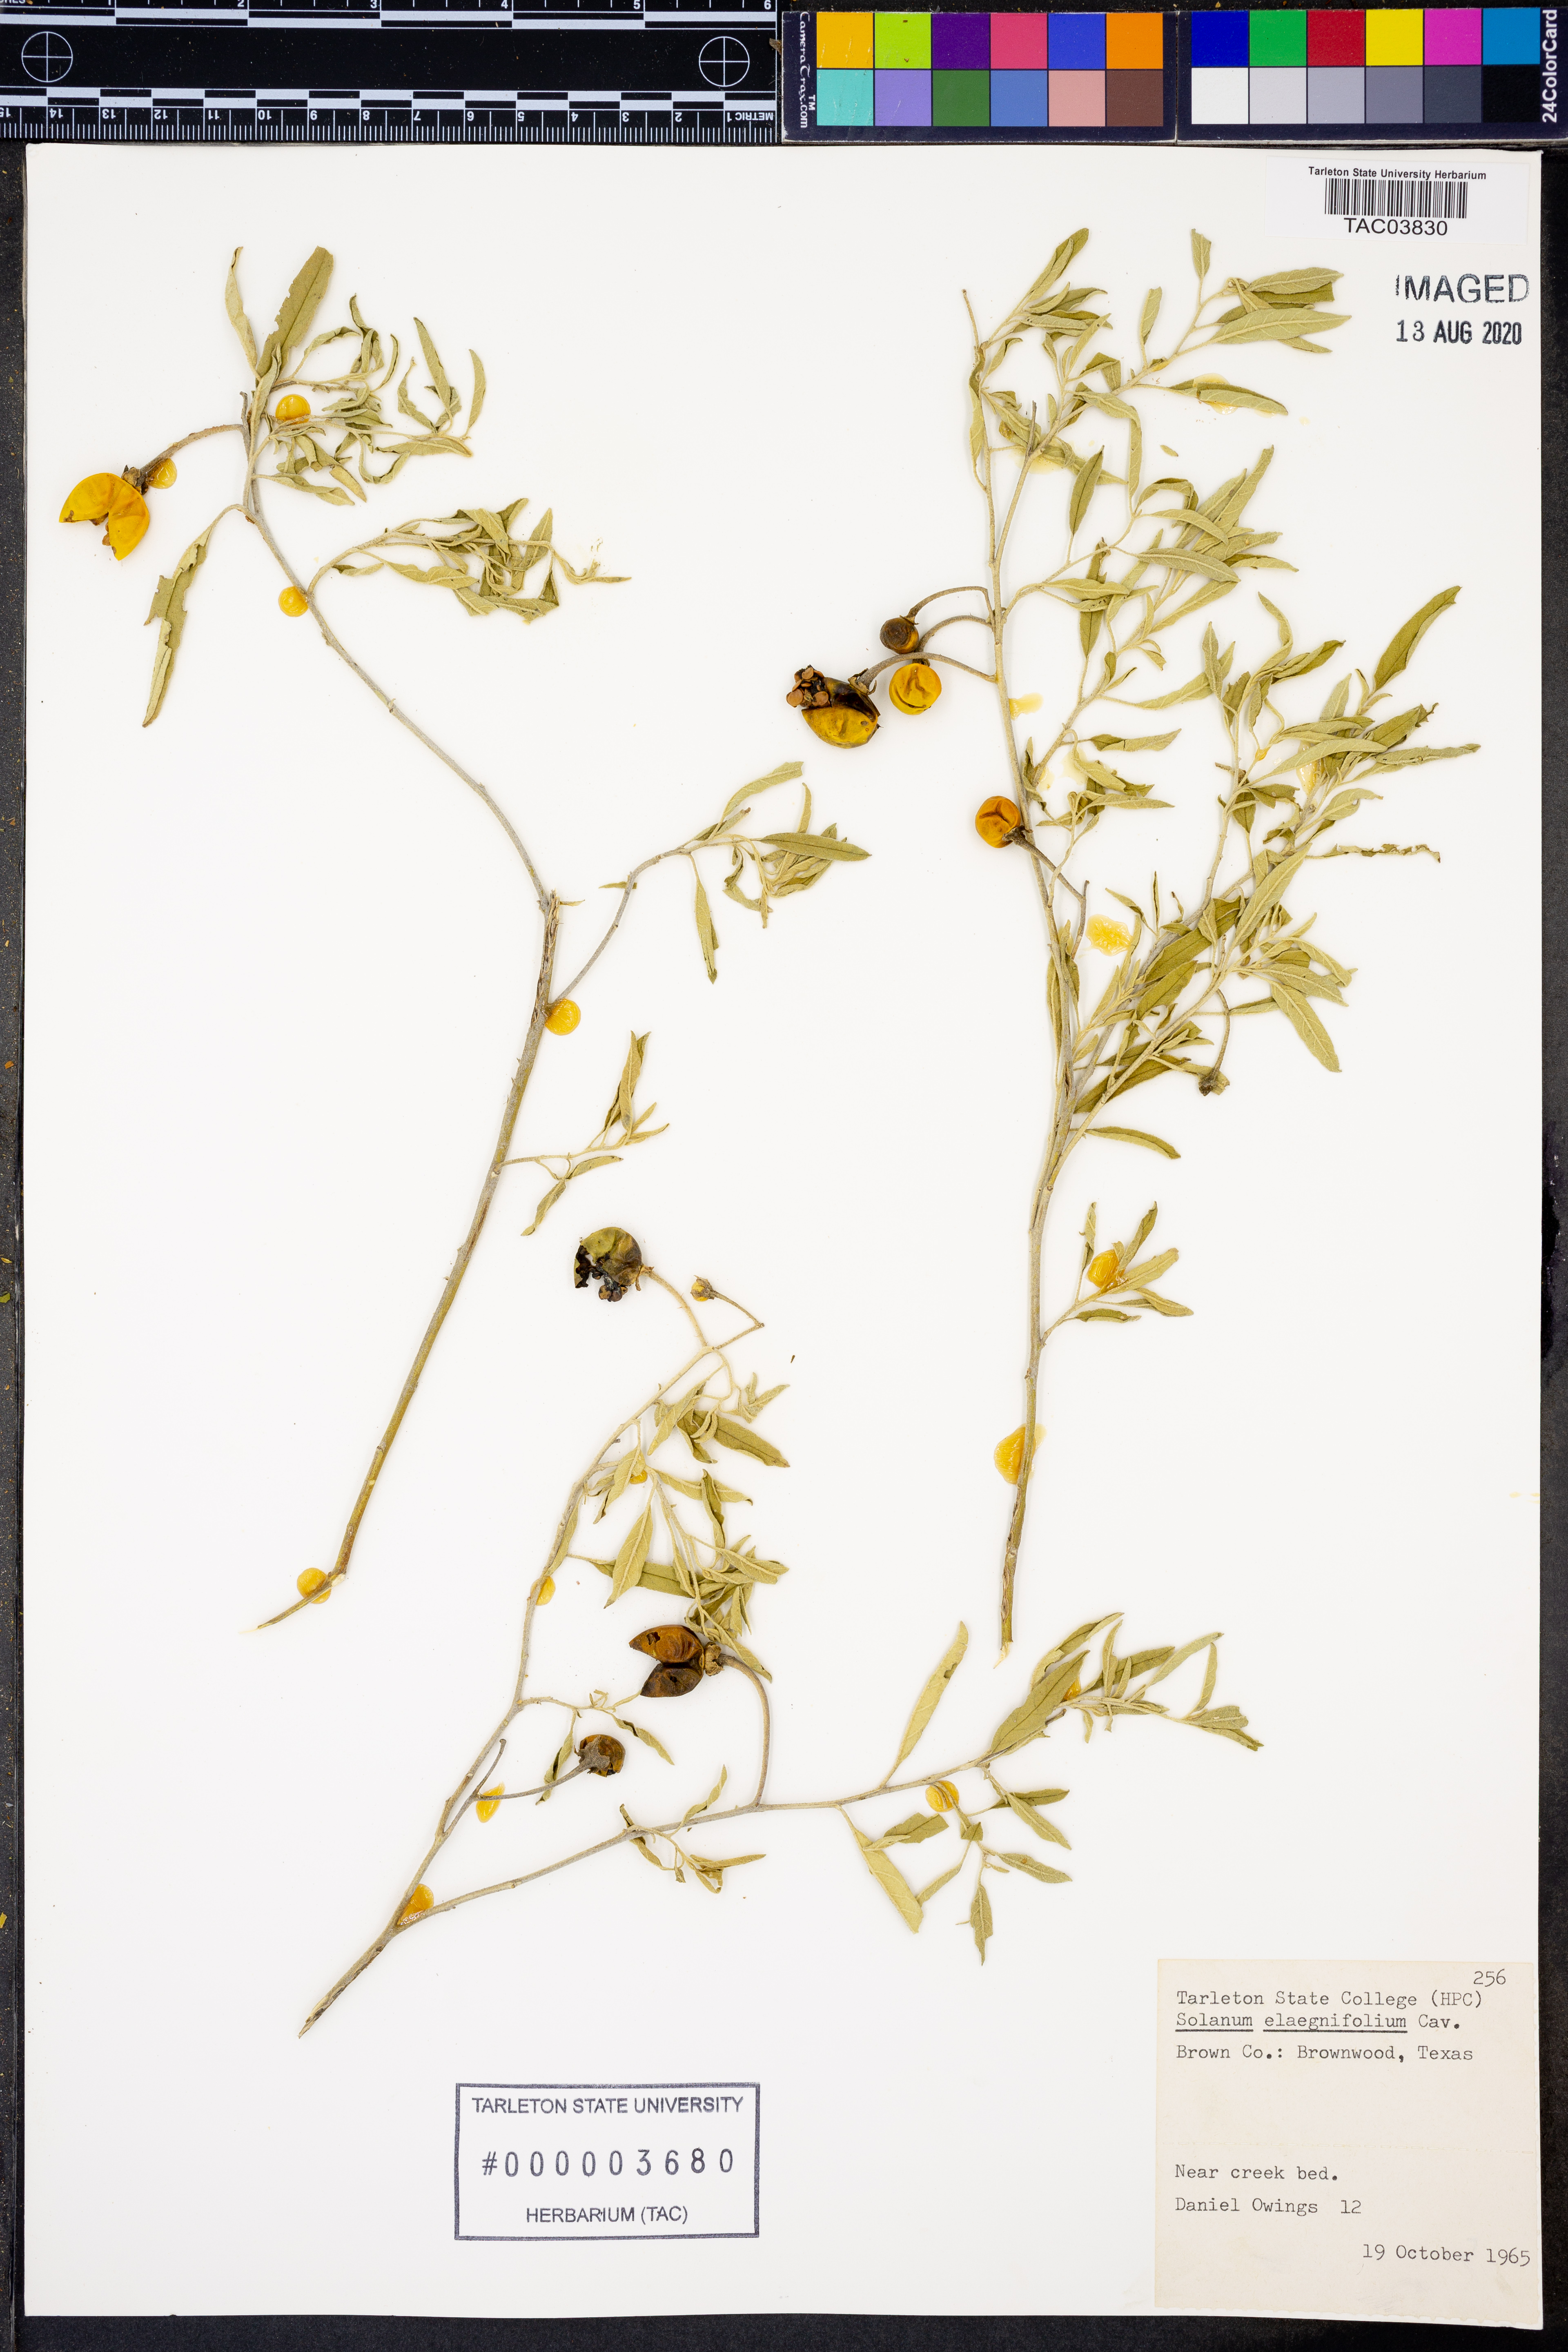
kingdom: Plantae
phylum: Tracheophyta
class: Magnoliopsida
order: Solanales
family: Solanaceae
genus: Solanum
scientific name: Solanum elaeagnifolium
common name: Silverleaf nightshade
